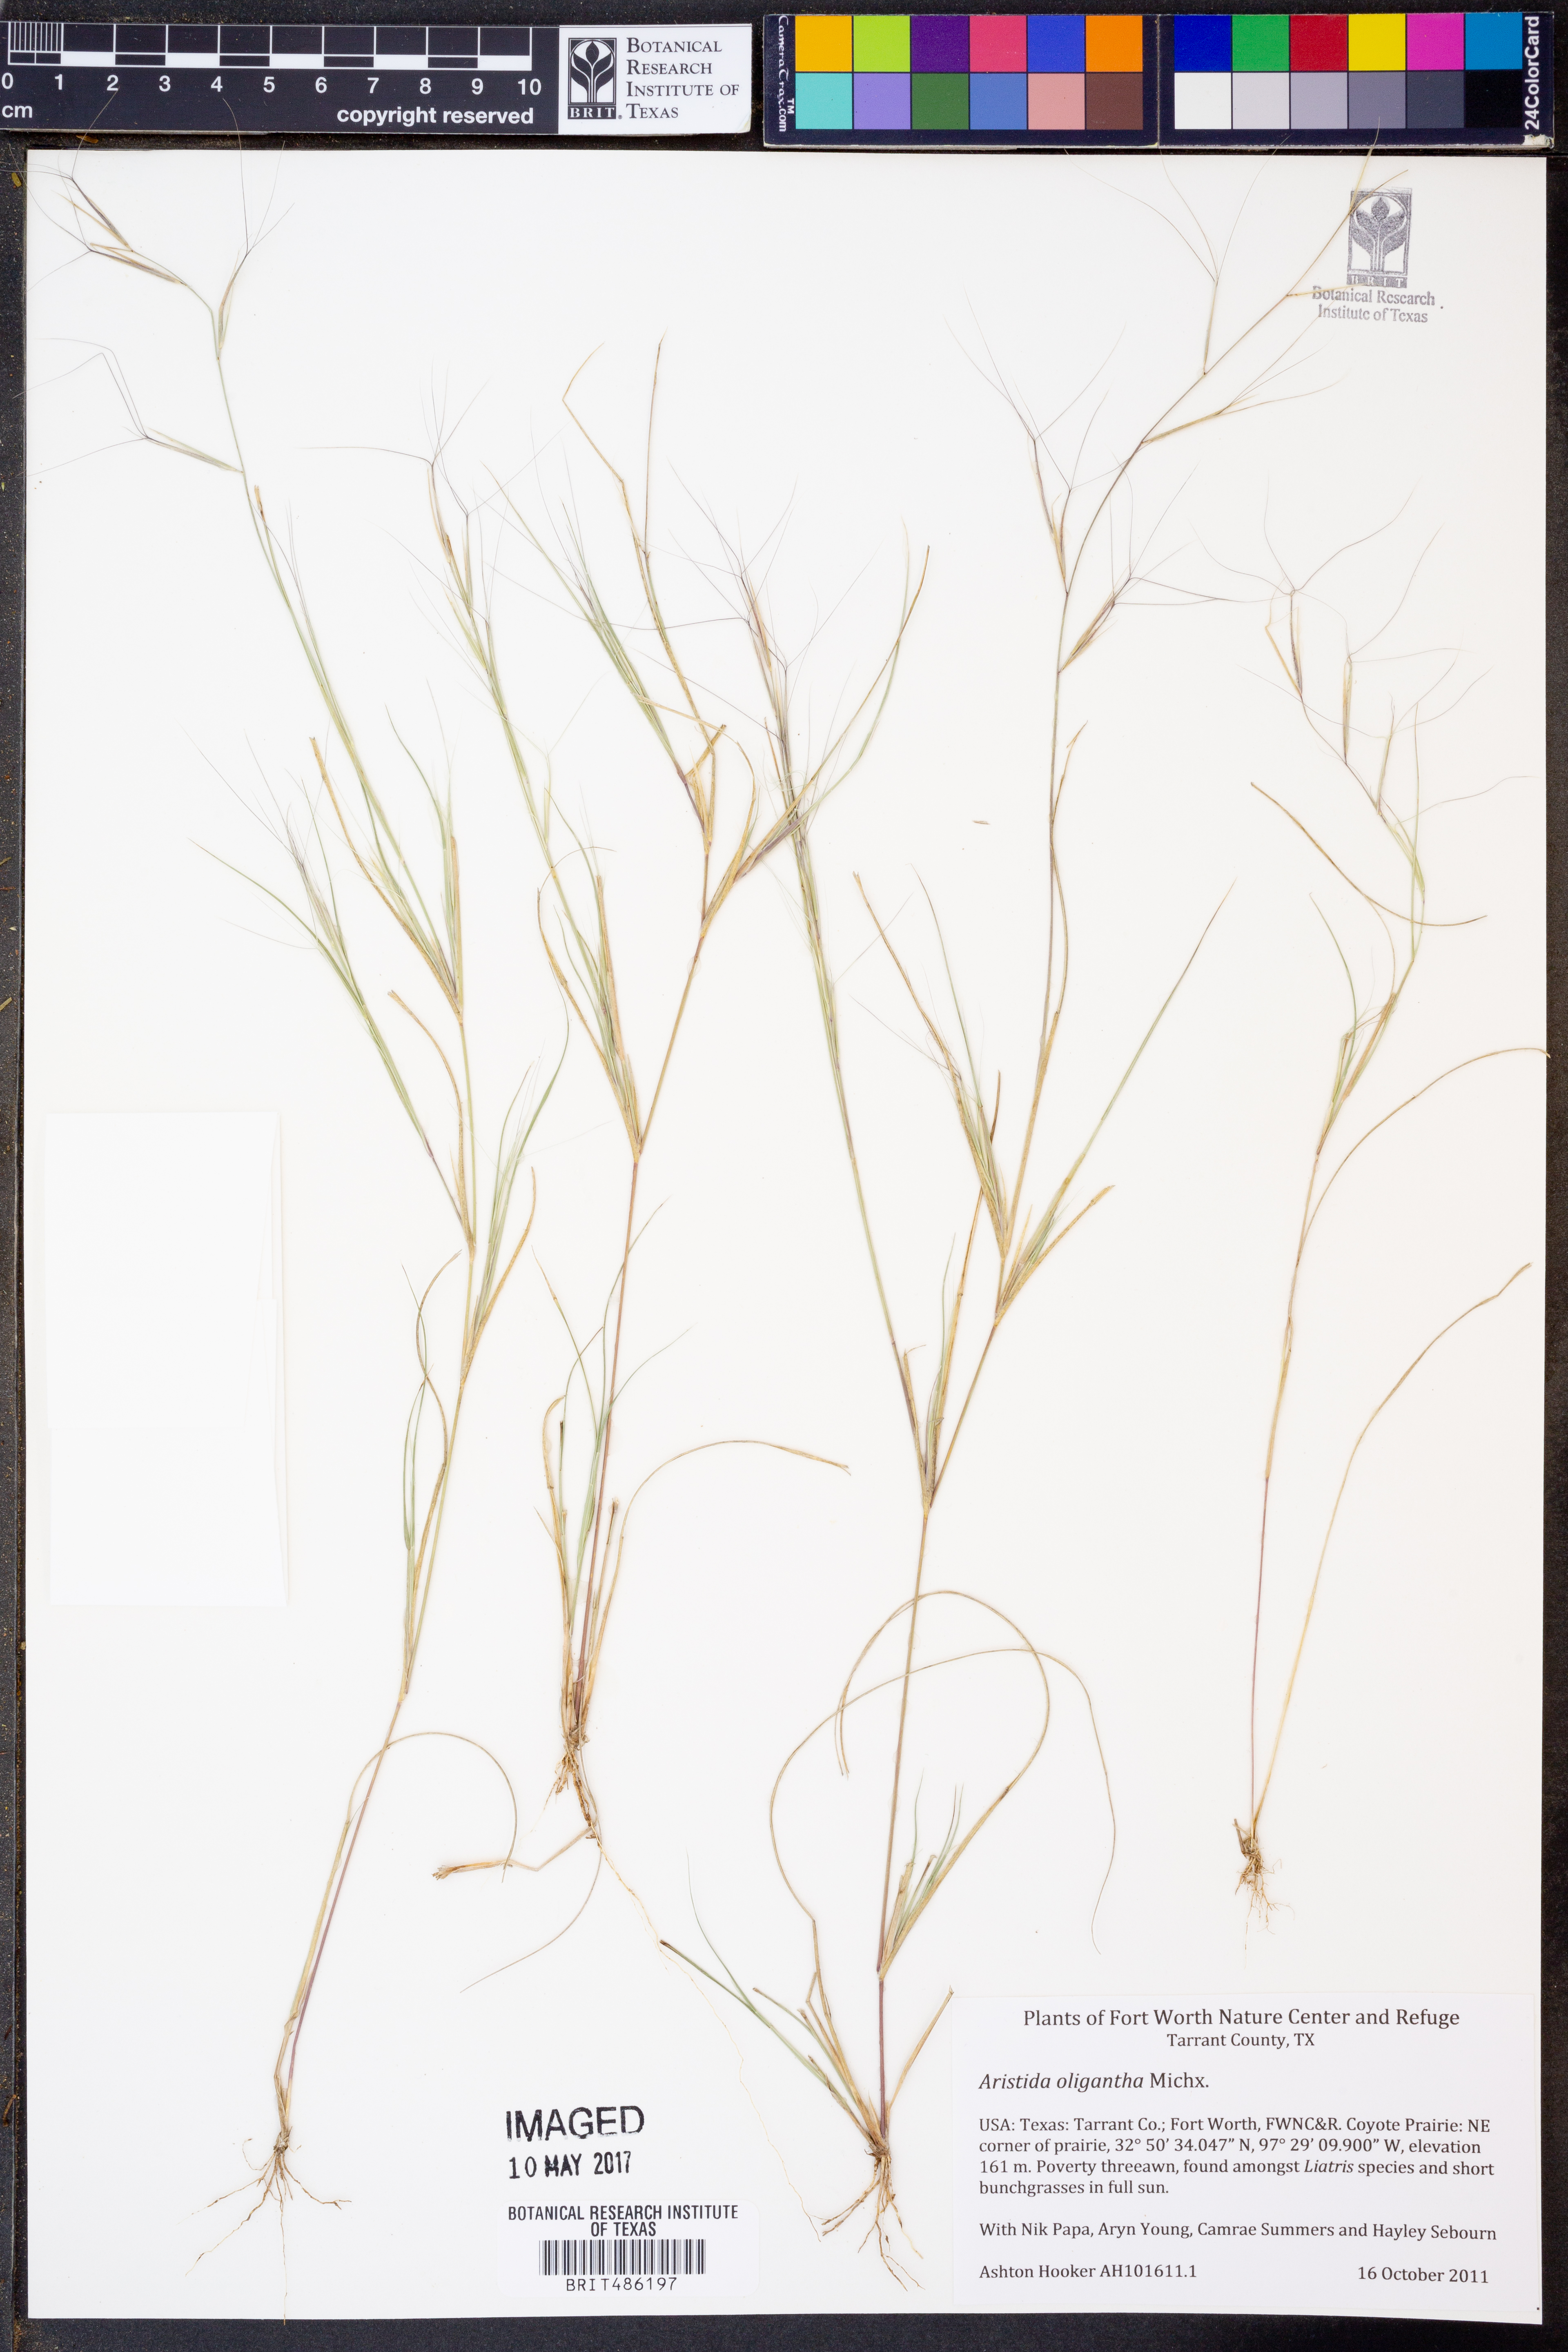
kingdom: Plantae
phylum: Tracheophyta
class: Liliopsida
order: Poales
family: Poaceae
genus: Aristida
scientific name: Aristida oligantha
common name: Few-flowered aristida
